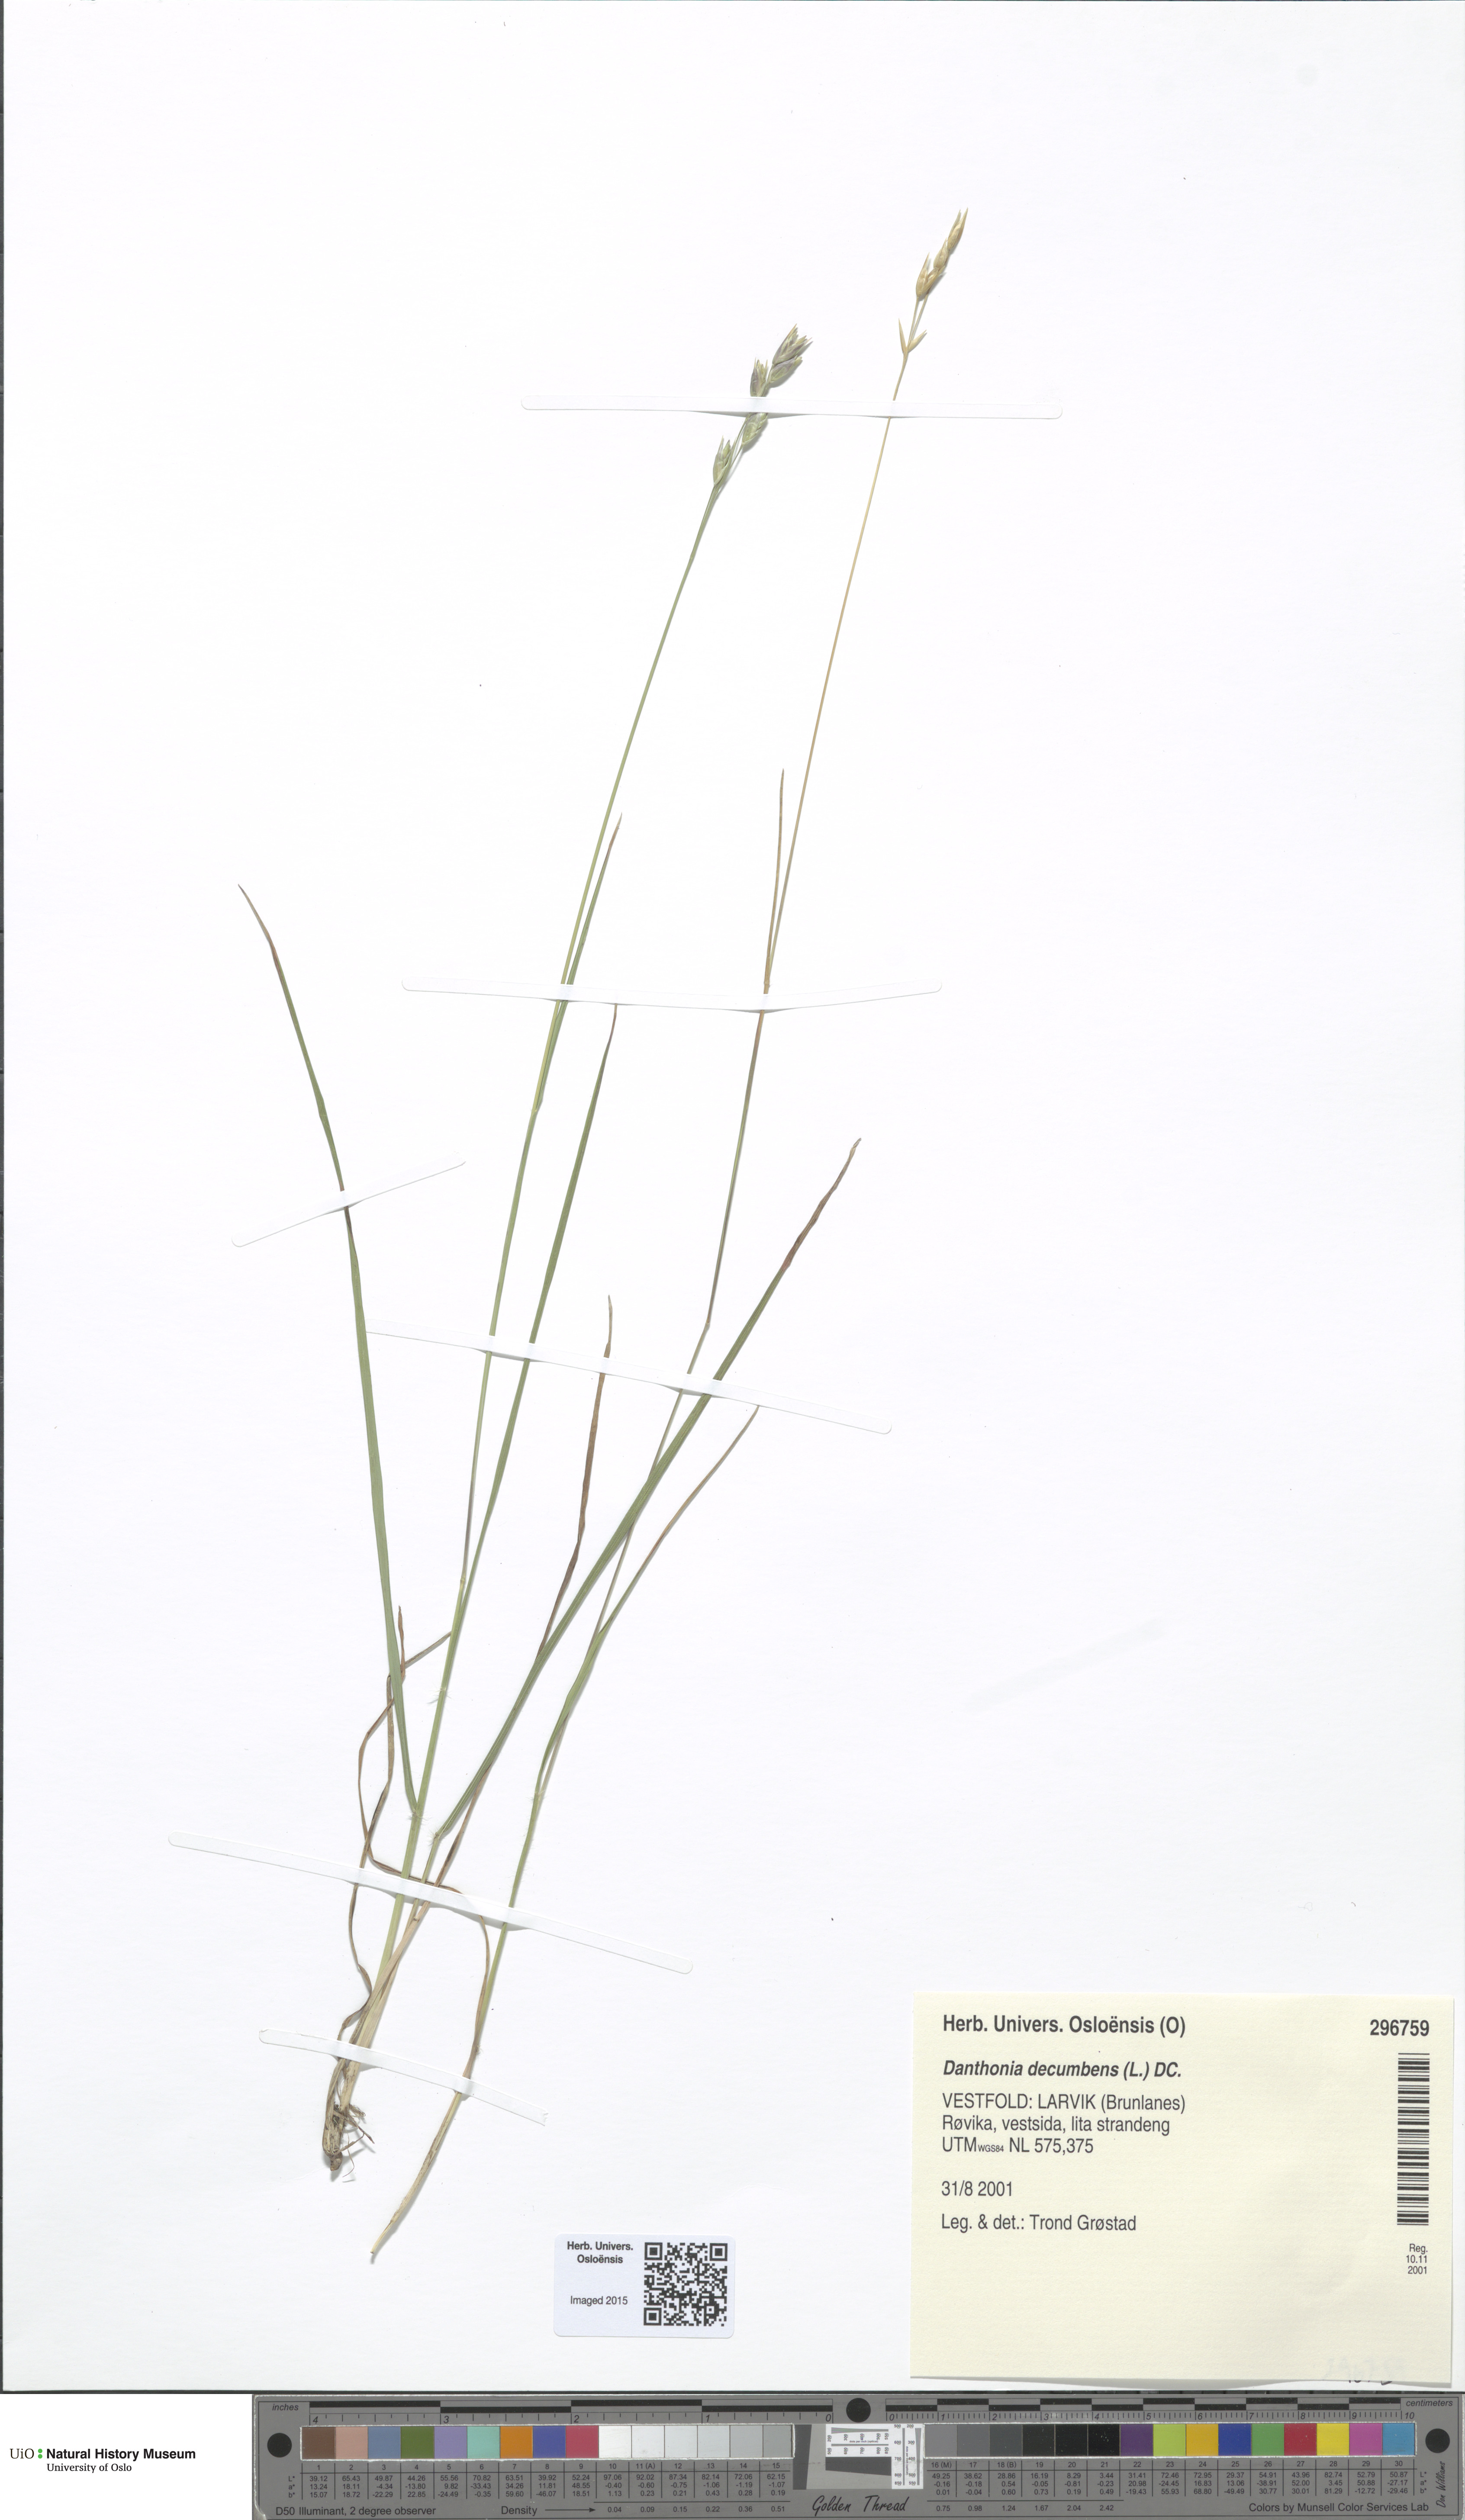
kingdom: Plantae
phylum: Tracheophyta
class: Liliopsida
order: Poales
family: Poaceae
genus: Danthonia
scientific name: Danthonia decumbens
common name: Common heathgrass
